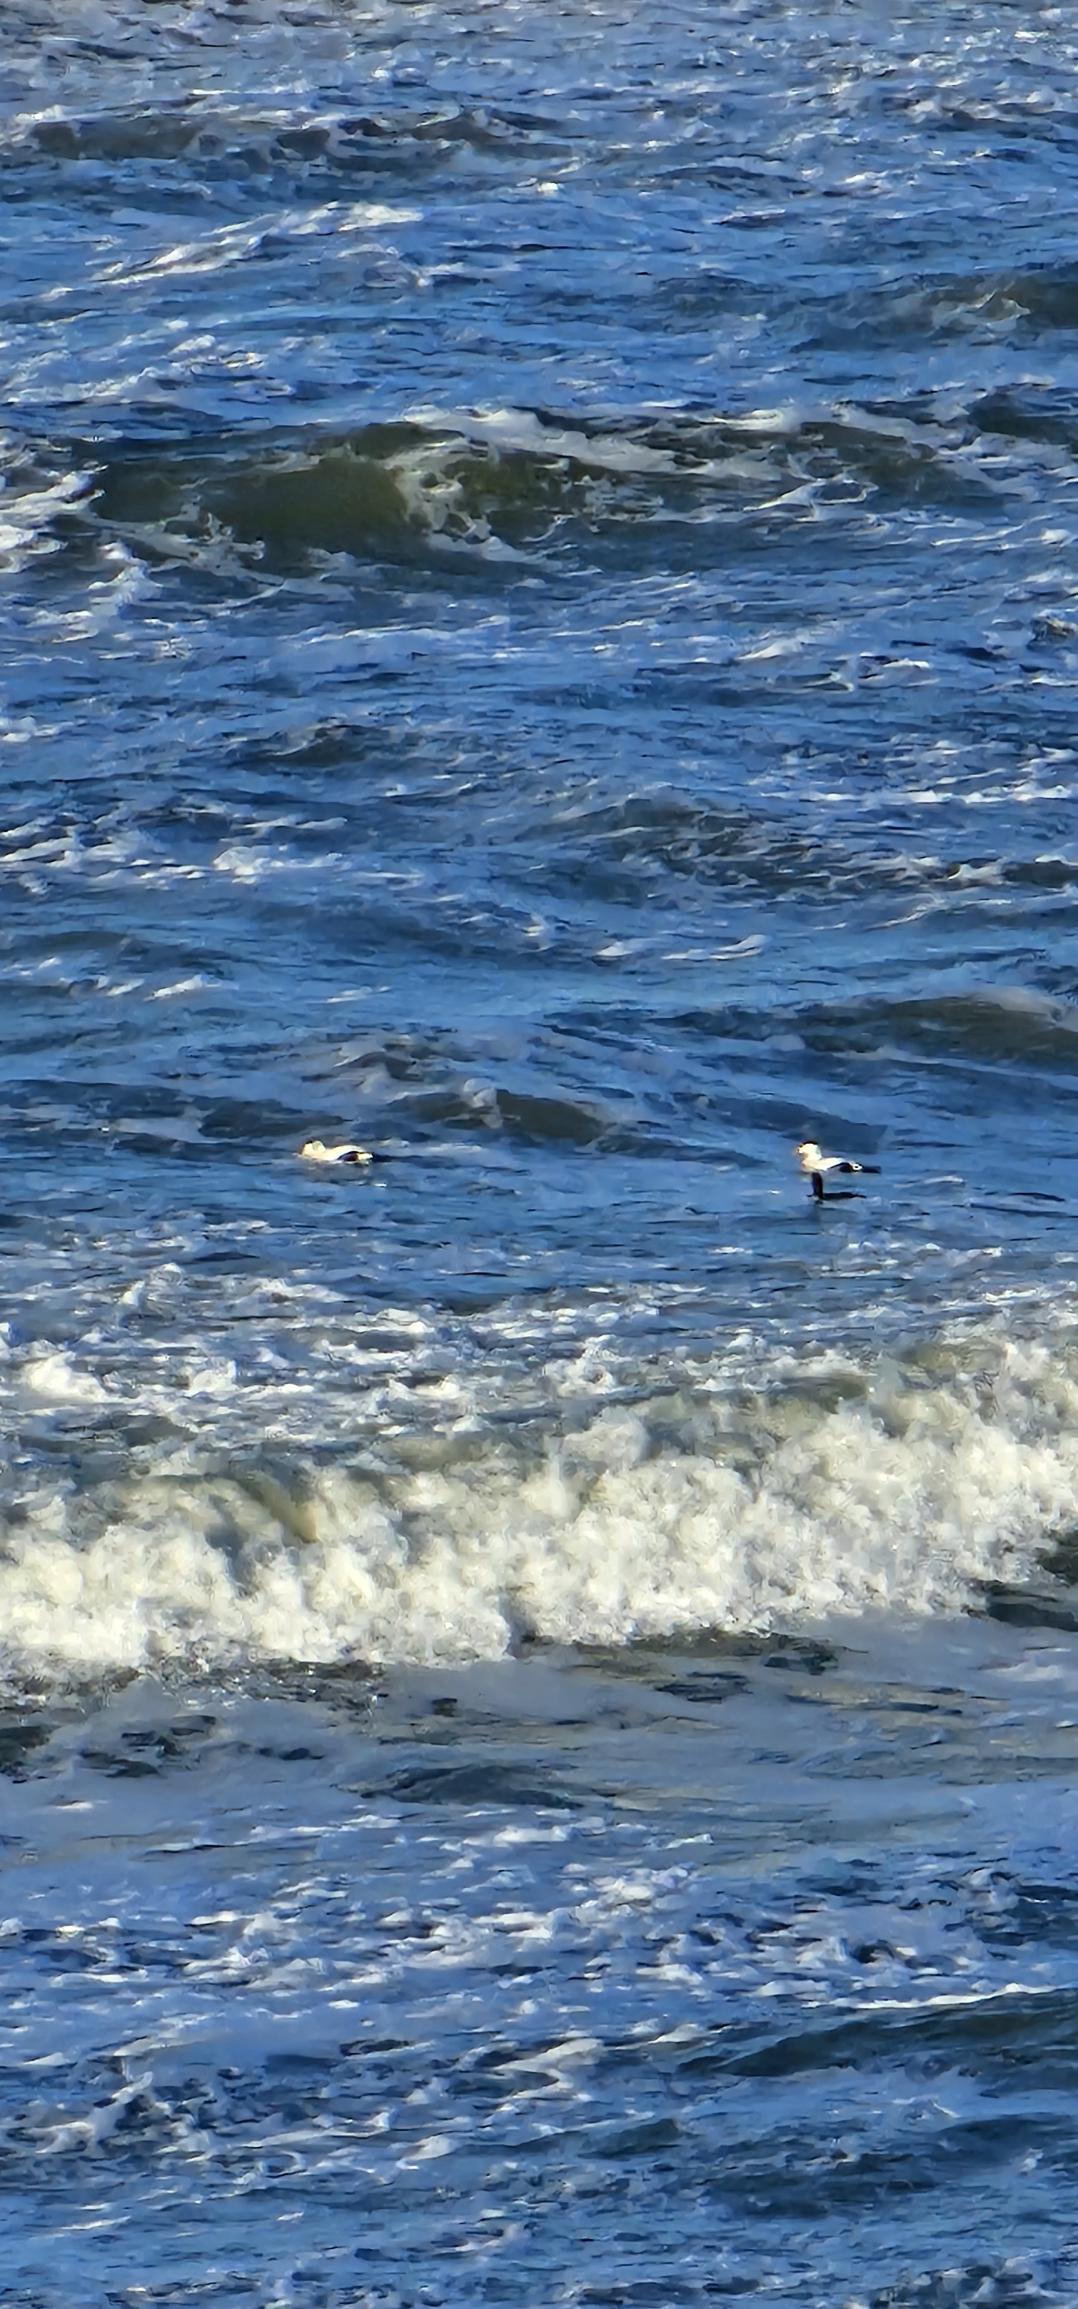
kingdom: Animalia
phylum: Chordata
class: Aves
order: Anseriformes
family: Anatidae
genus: Somateria
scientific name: Somateria mollissima
